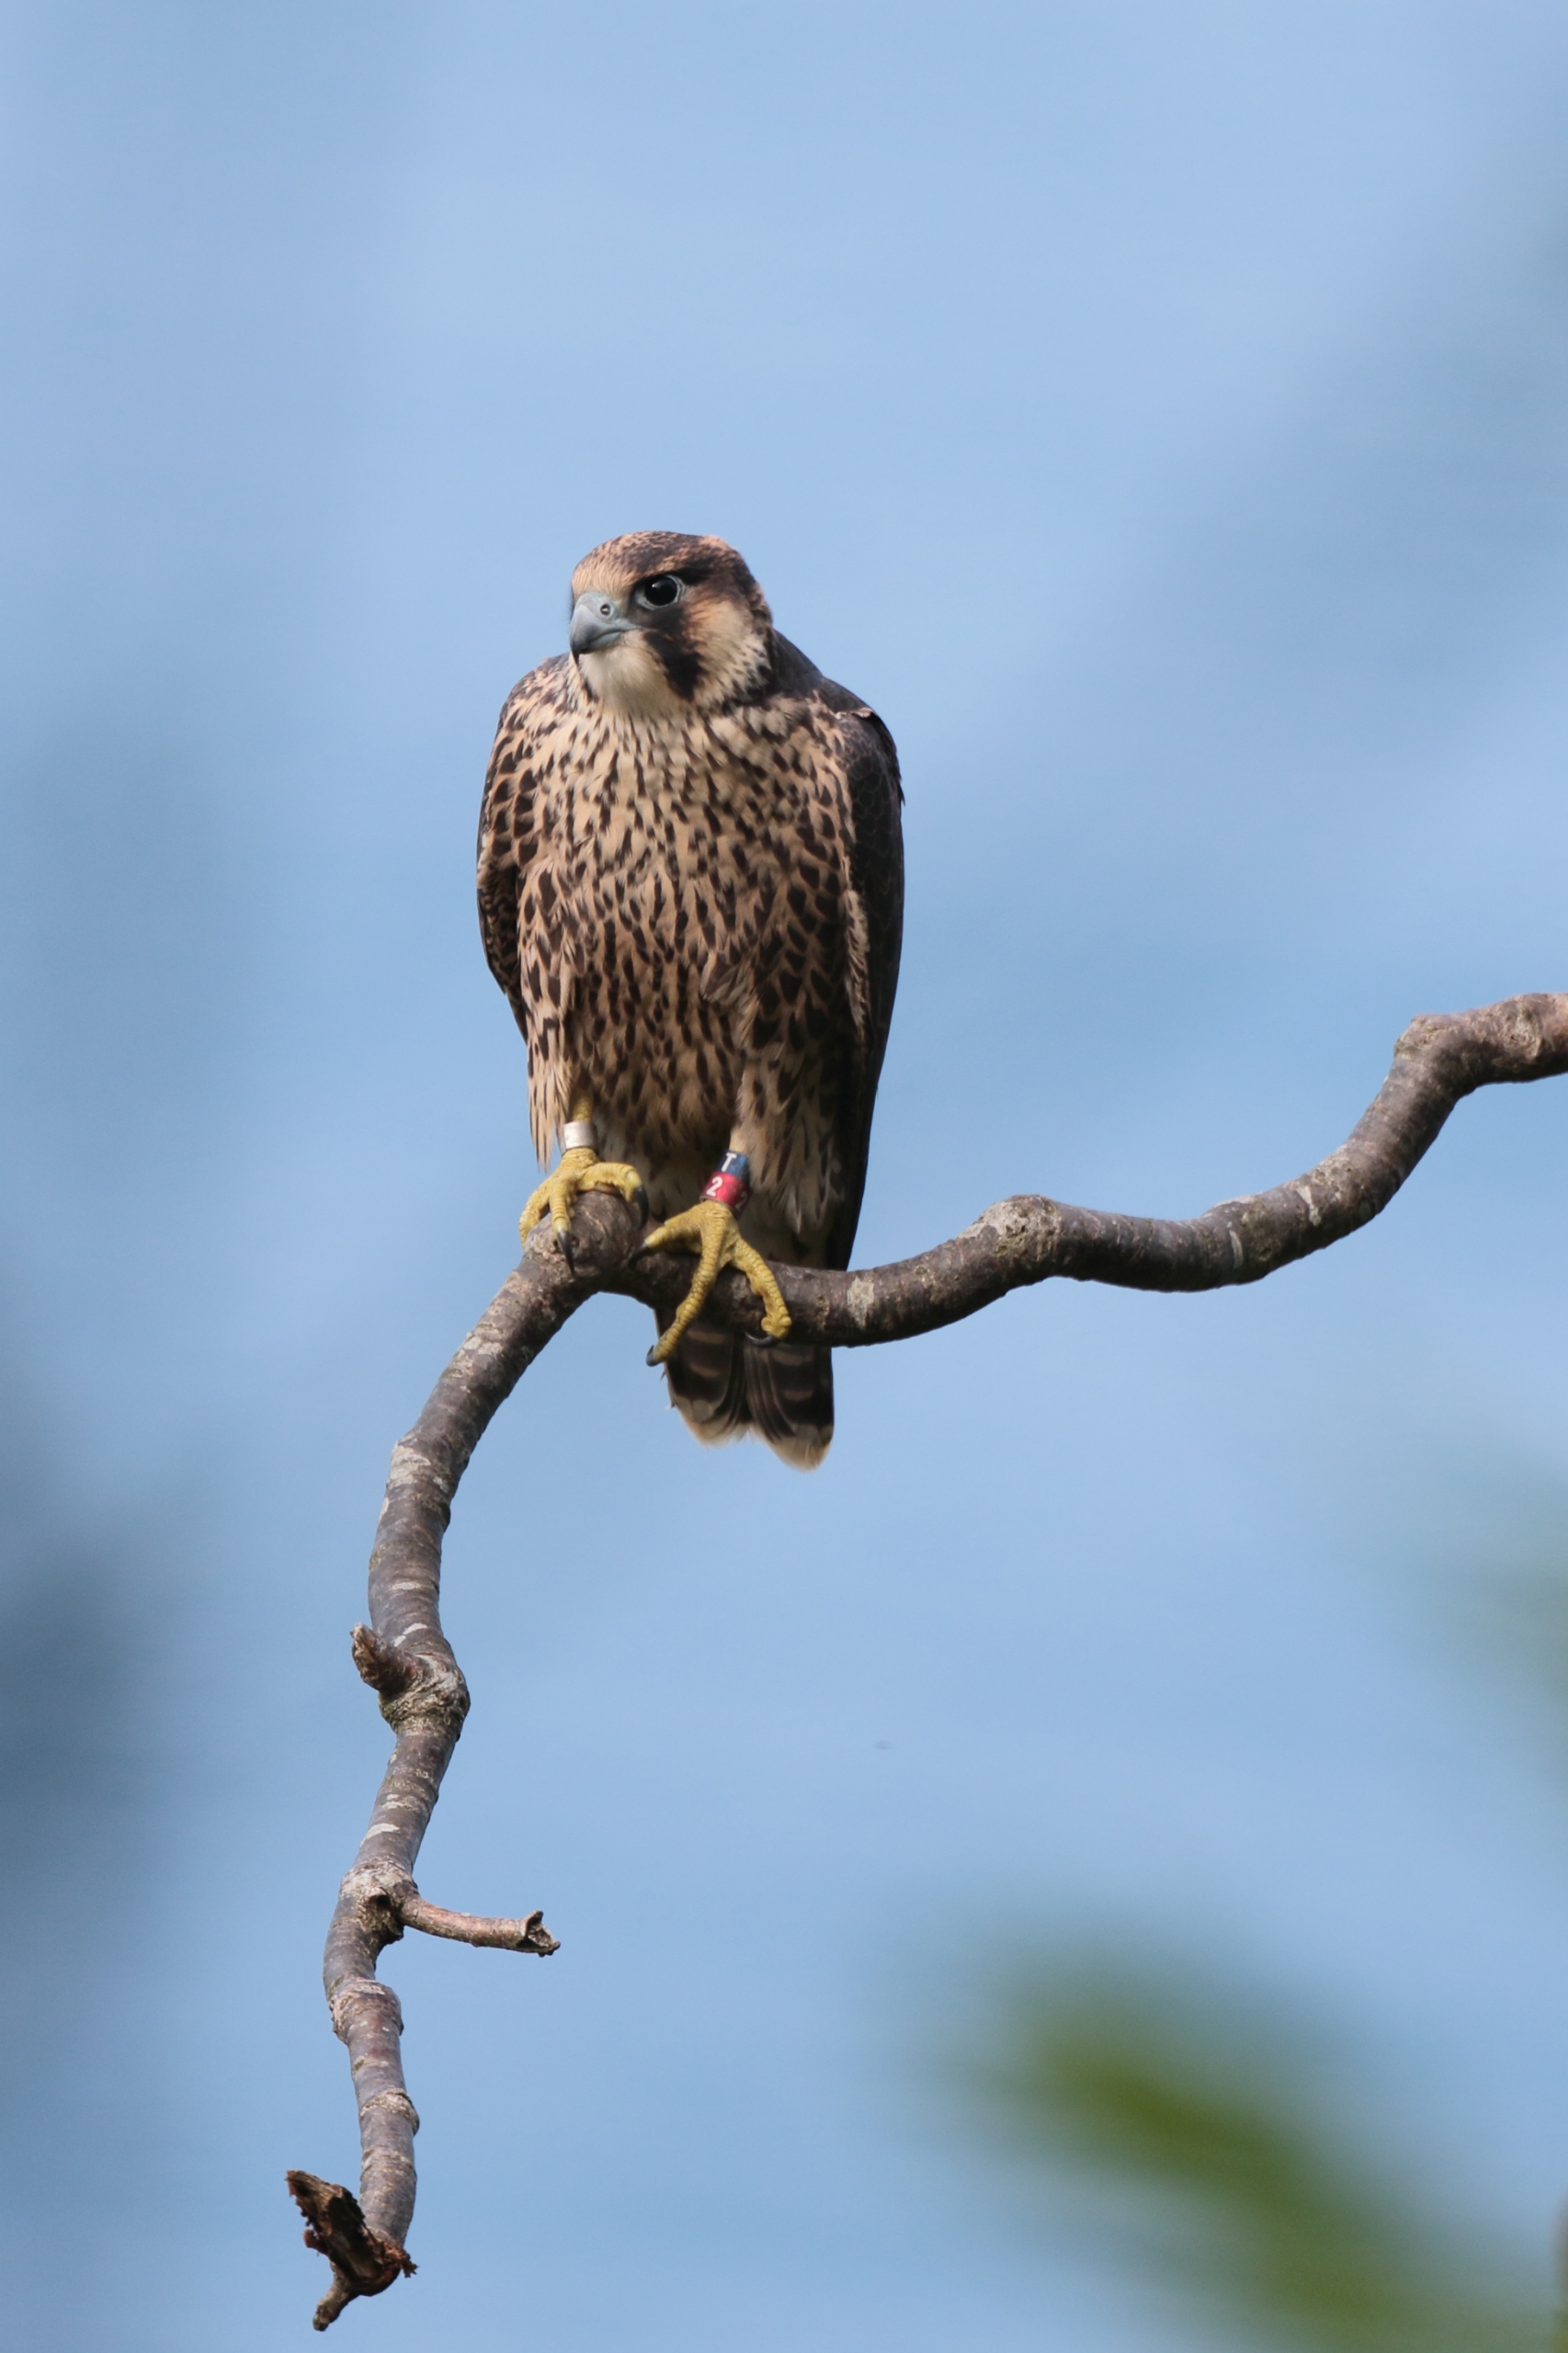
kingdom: Animalia
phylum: Chordata
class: Aves
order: Falconiformes
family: Falconidae
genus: Falco
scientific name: Falco peregrinus
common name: Vandrefalk
